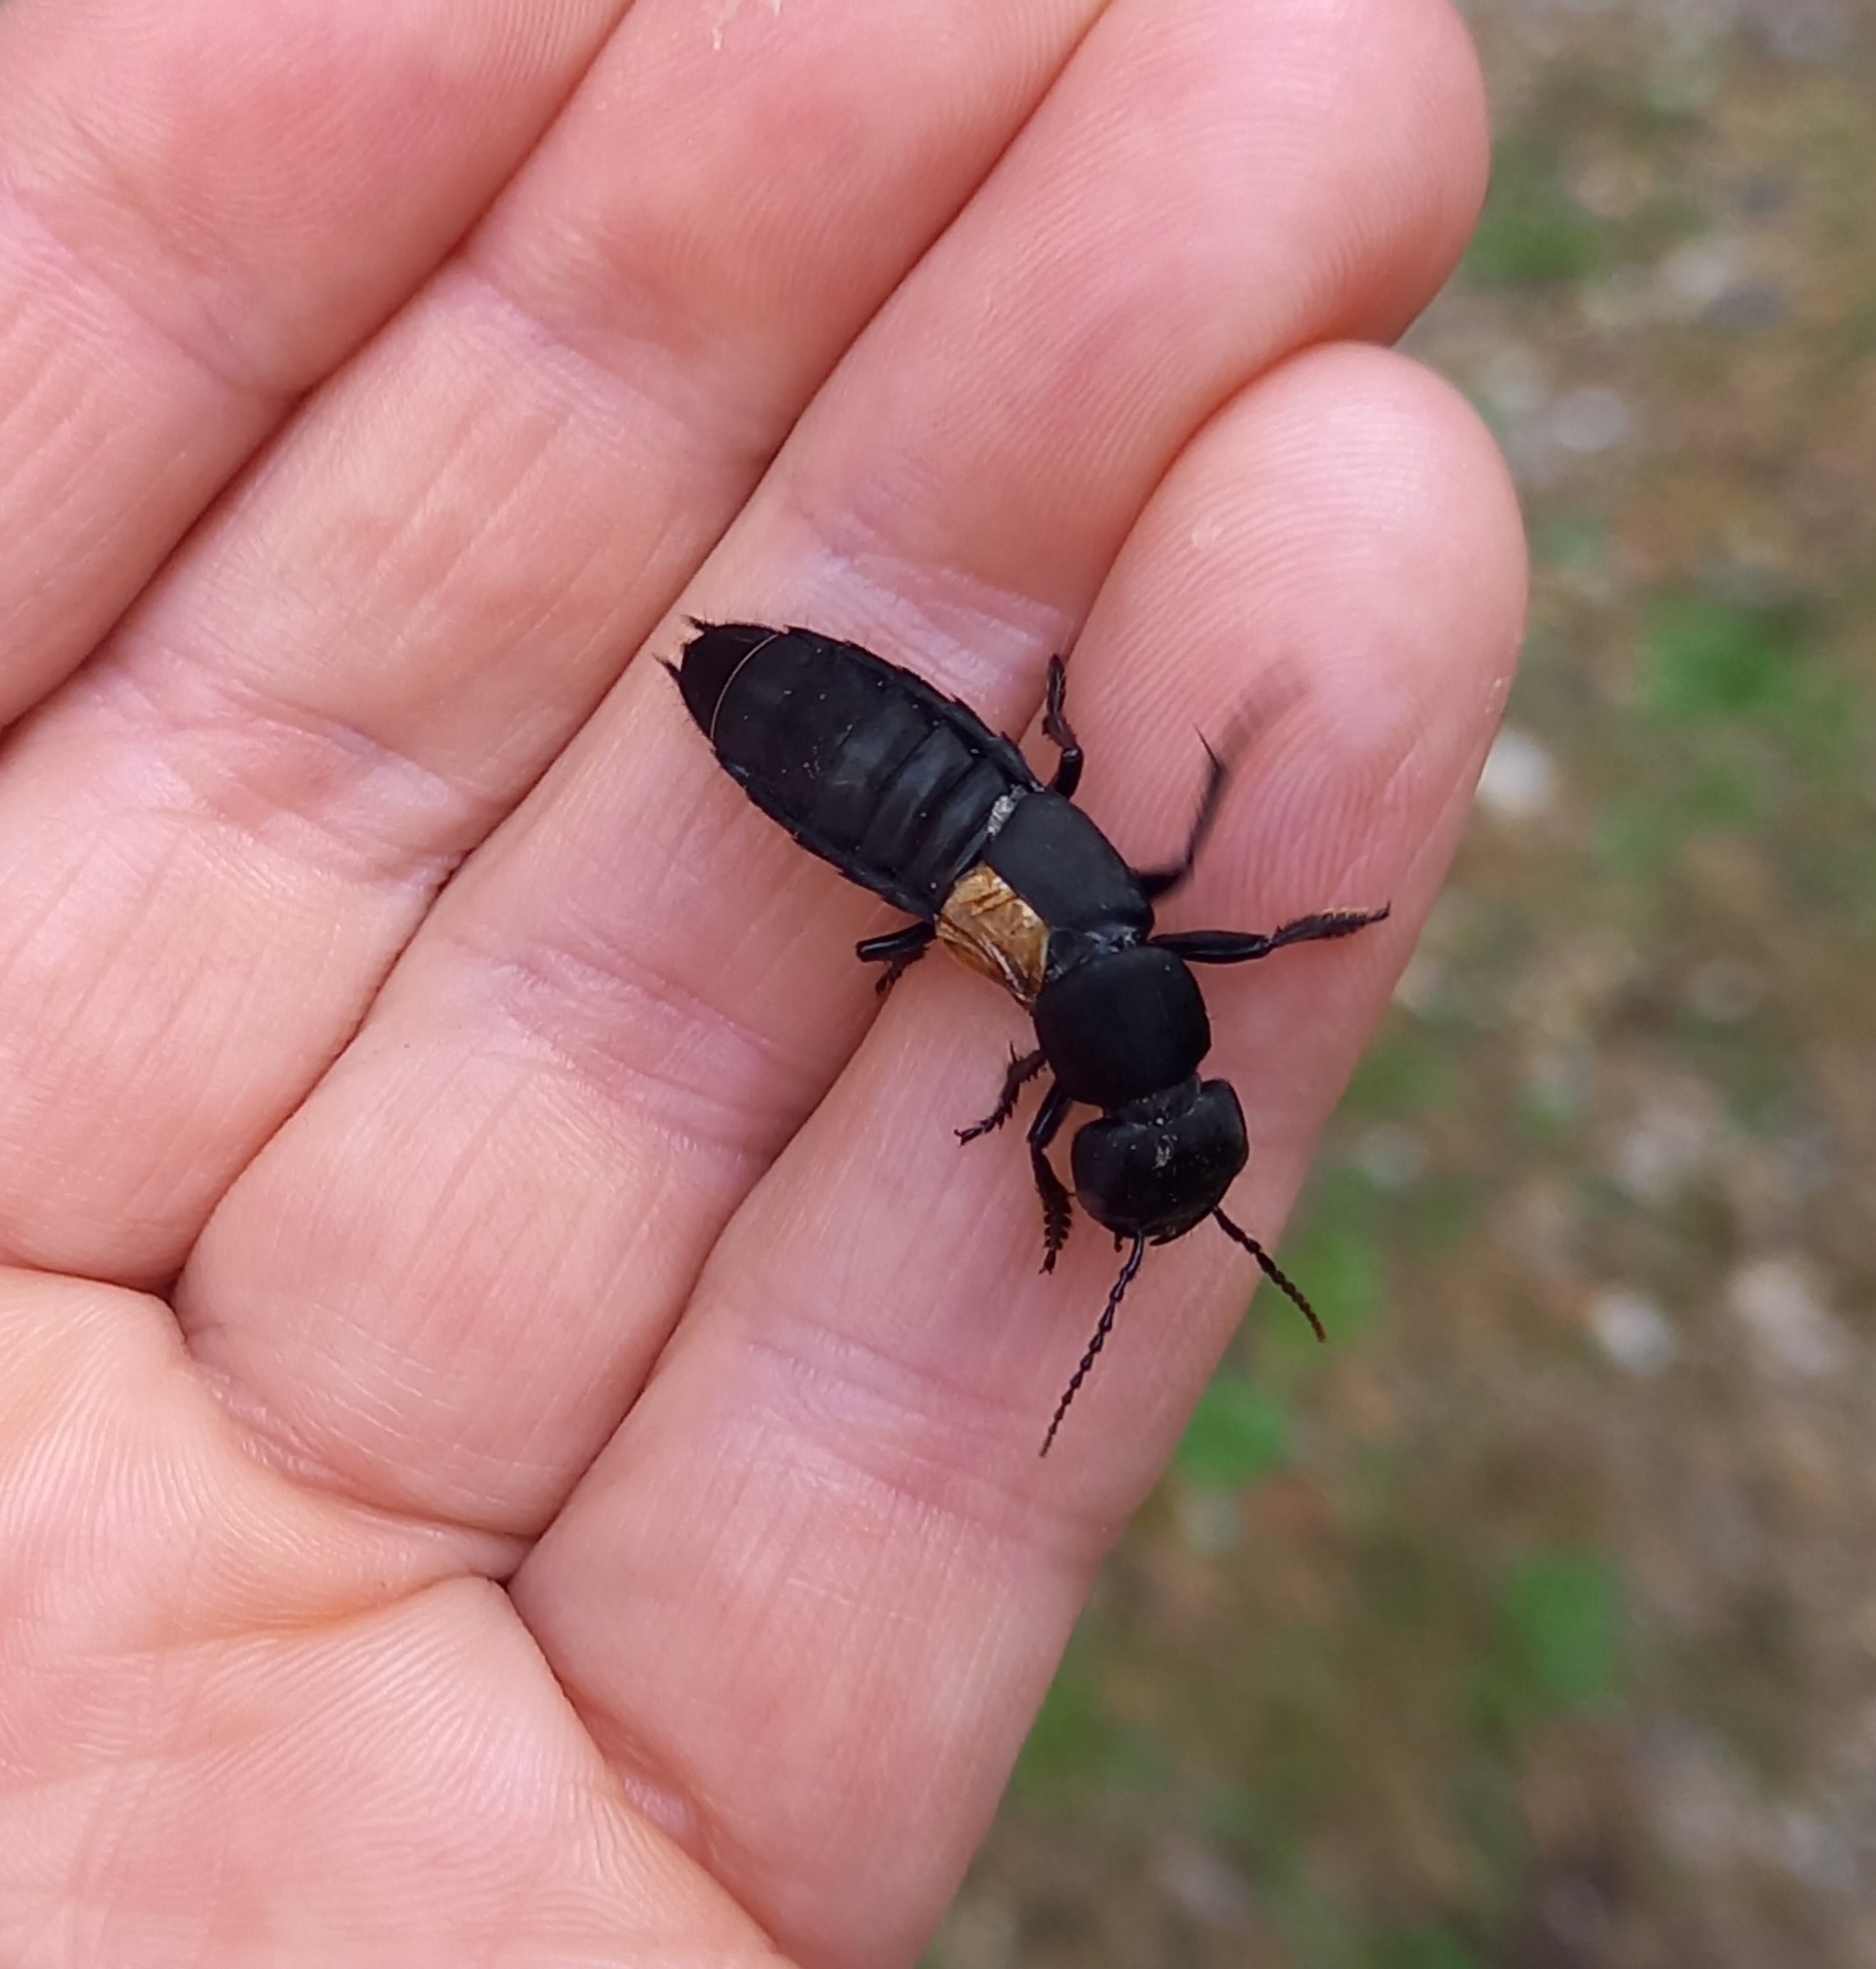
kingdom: Animalia
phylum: Arthropoda
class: Insecta
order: Coleoptera
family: Staphylinidae
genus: Ocypus
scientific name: Ocypus olens
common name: Stor rovbille
